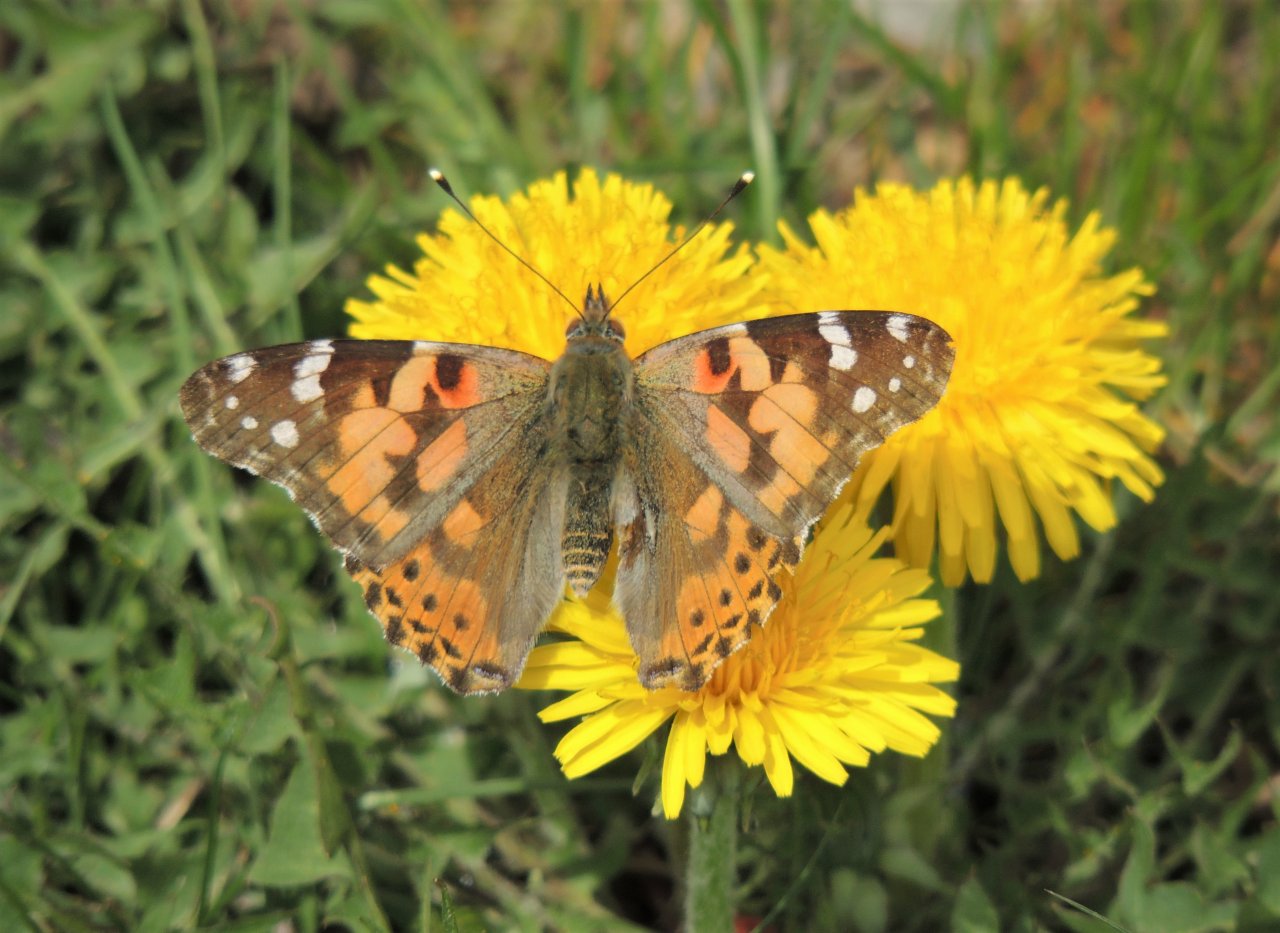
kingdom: Animalia
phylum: Arthropoda
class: Insecta
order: Lepidoptera
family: Nymphalidae
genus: Vanessa
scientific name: Vanessa cardui
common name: Painted Lady
